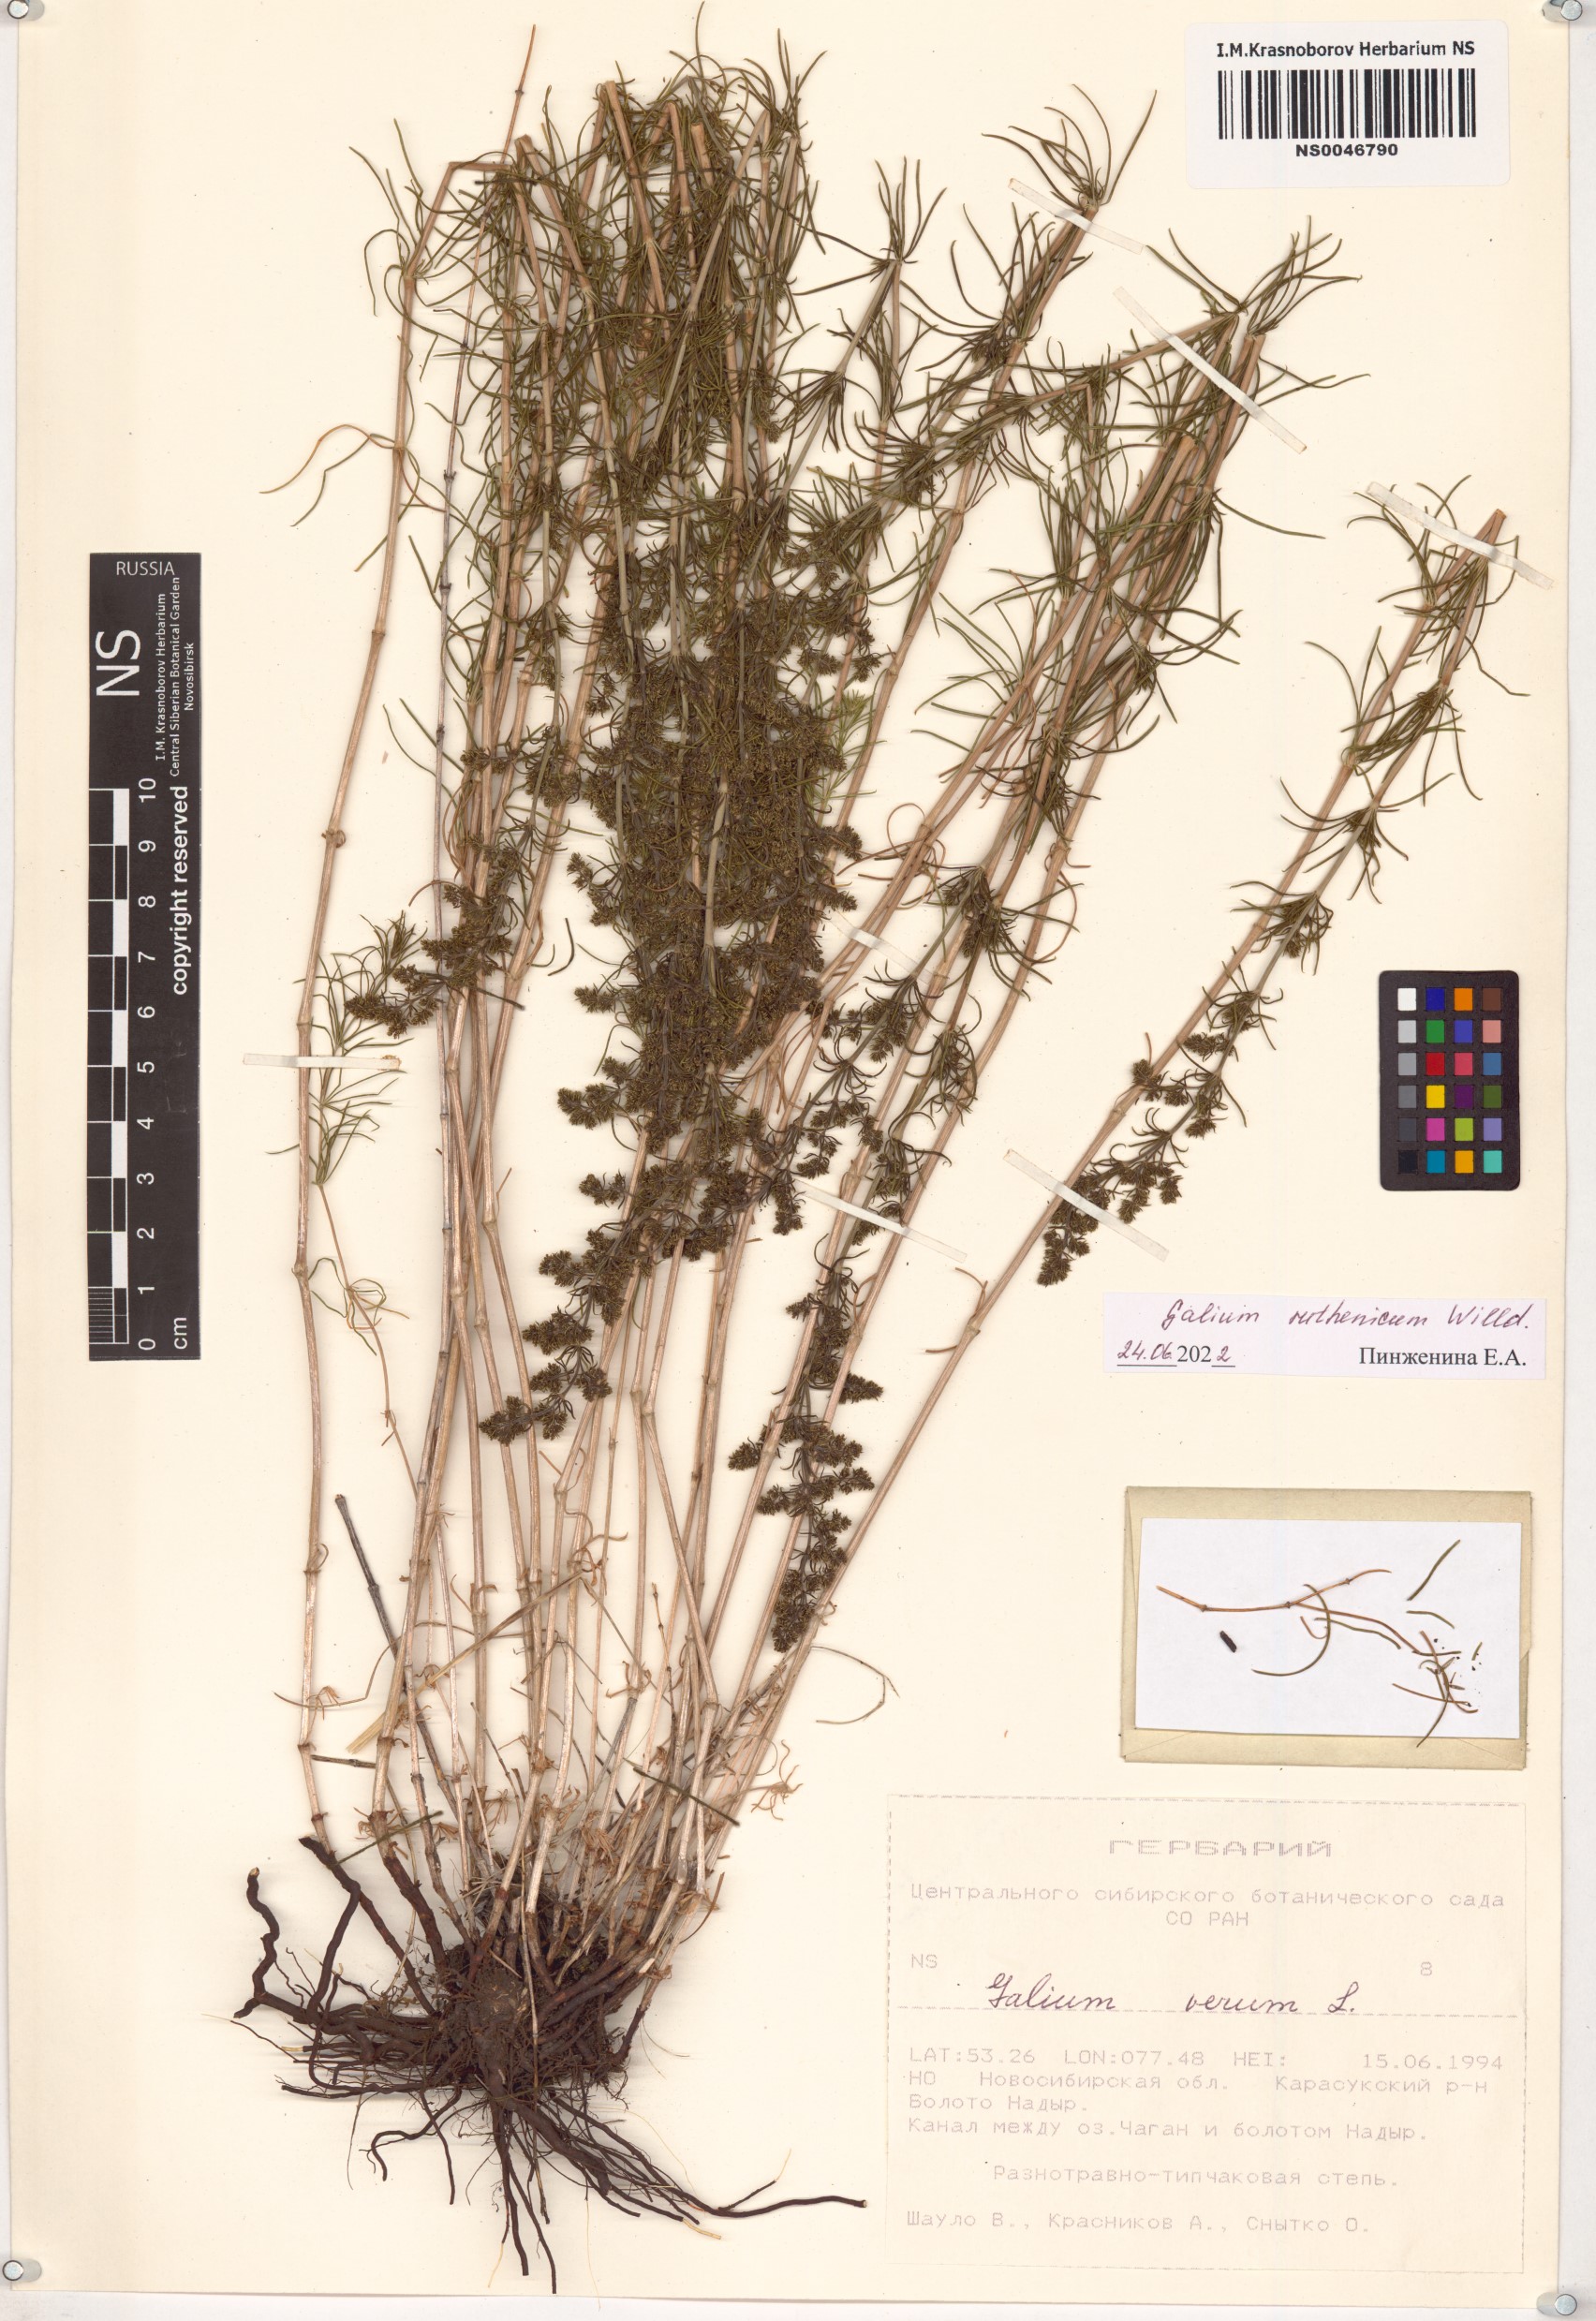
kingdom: Plantae
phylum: Tracheophyta
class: Magnoliopsida
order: Gentianales
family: Rubiaceae
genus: Galium
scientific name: Galium verum
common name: Lady's bedstraw
